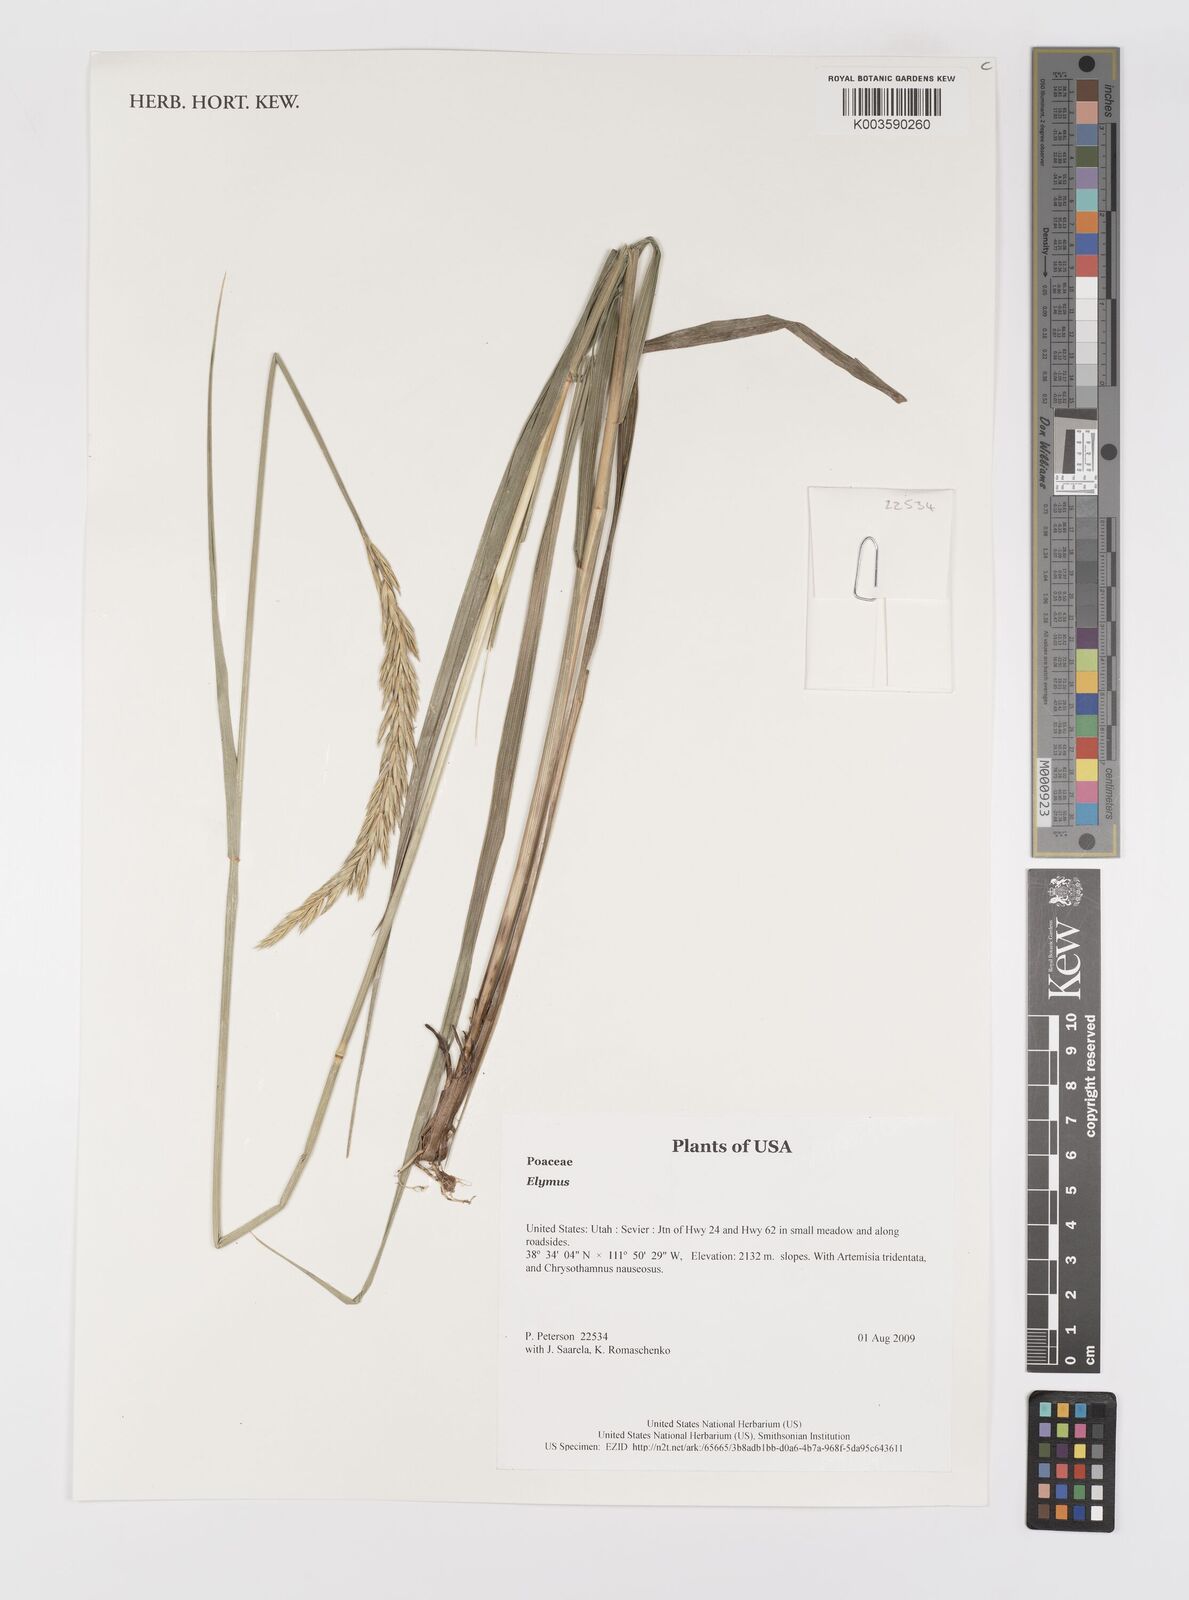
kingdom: Plantae
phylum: Tracheophyta
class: Liliopsida
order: Poales
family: Poaceae
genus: Elymus
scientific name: Elymus
